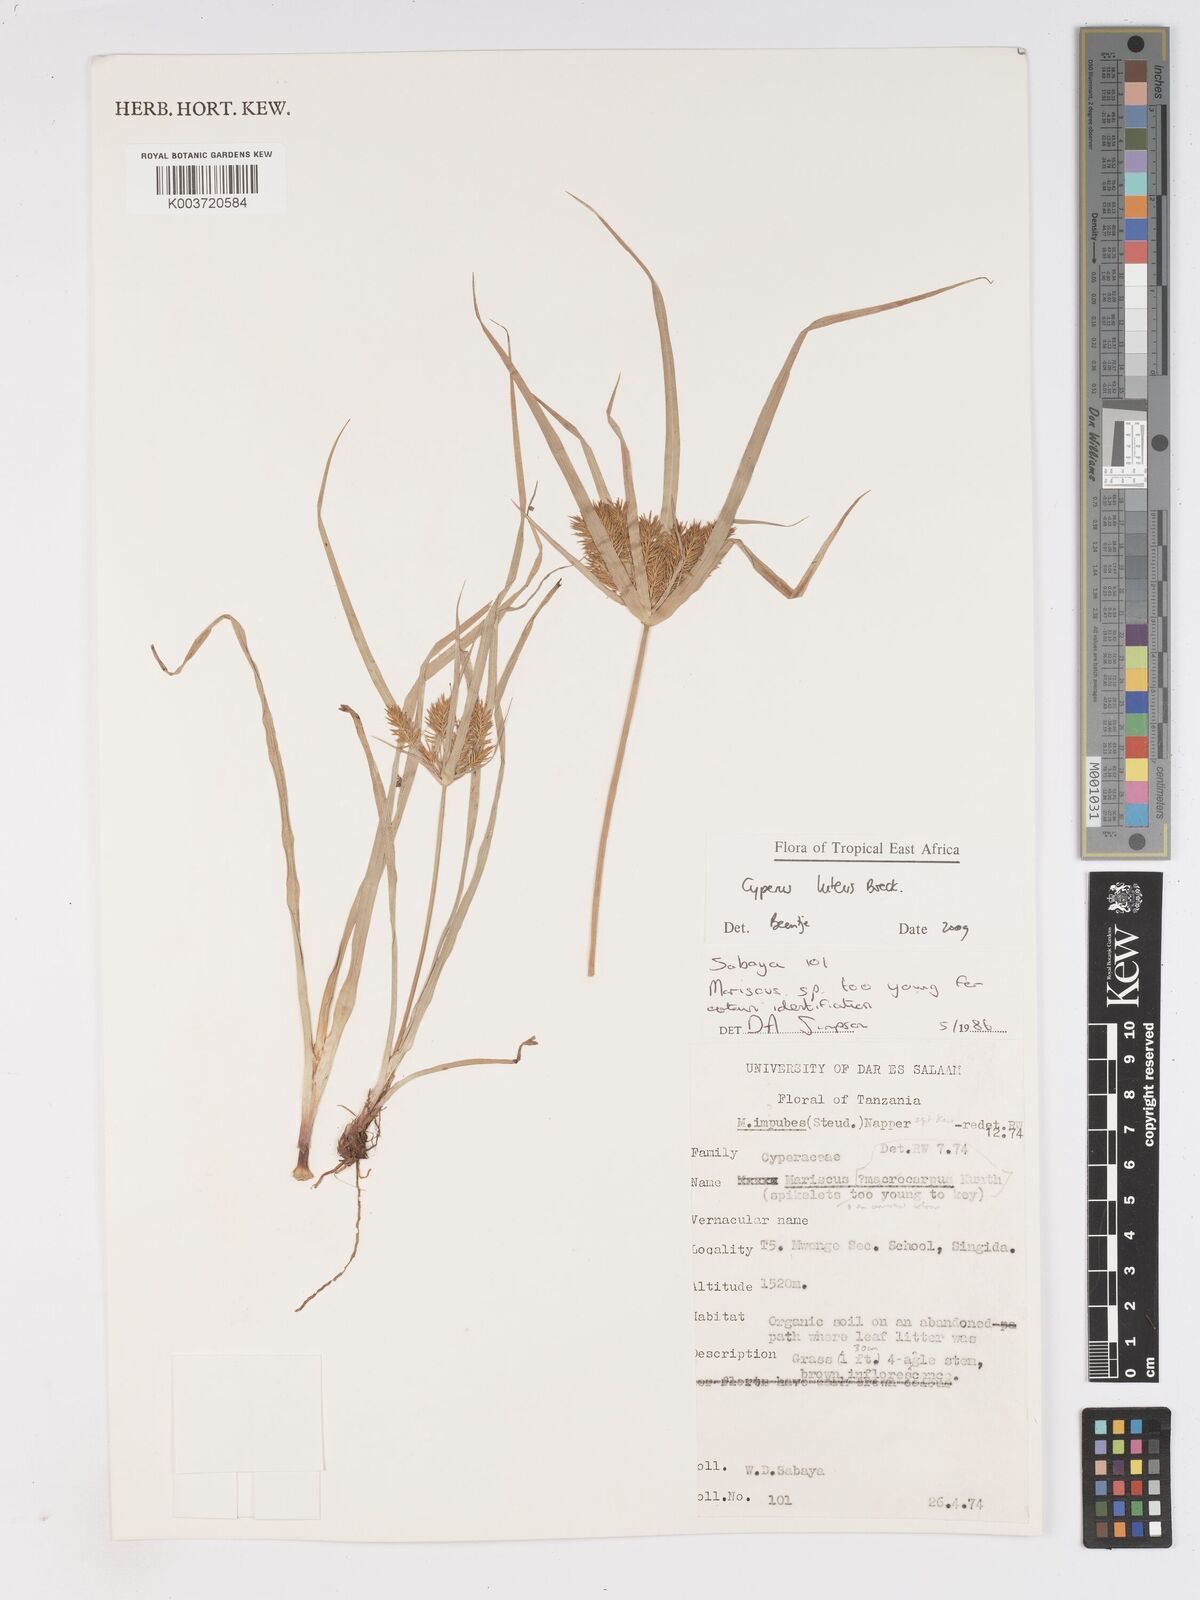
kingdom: Plantae
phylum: Tracheophyta
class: Liliopsida
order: Poales
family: Cyperaceae
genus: Cyperus
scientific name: Cyperus luteus
